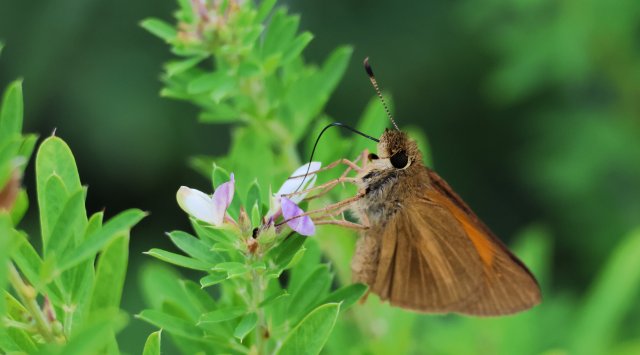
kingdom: Animalia
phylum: Arthropoda
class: Insecta
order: Lepidoptera
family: Hesperiidae
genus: Poanes
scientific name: Poanes aaroni
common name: Aaron's Skipper
